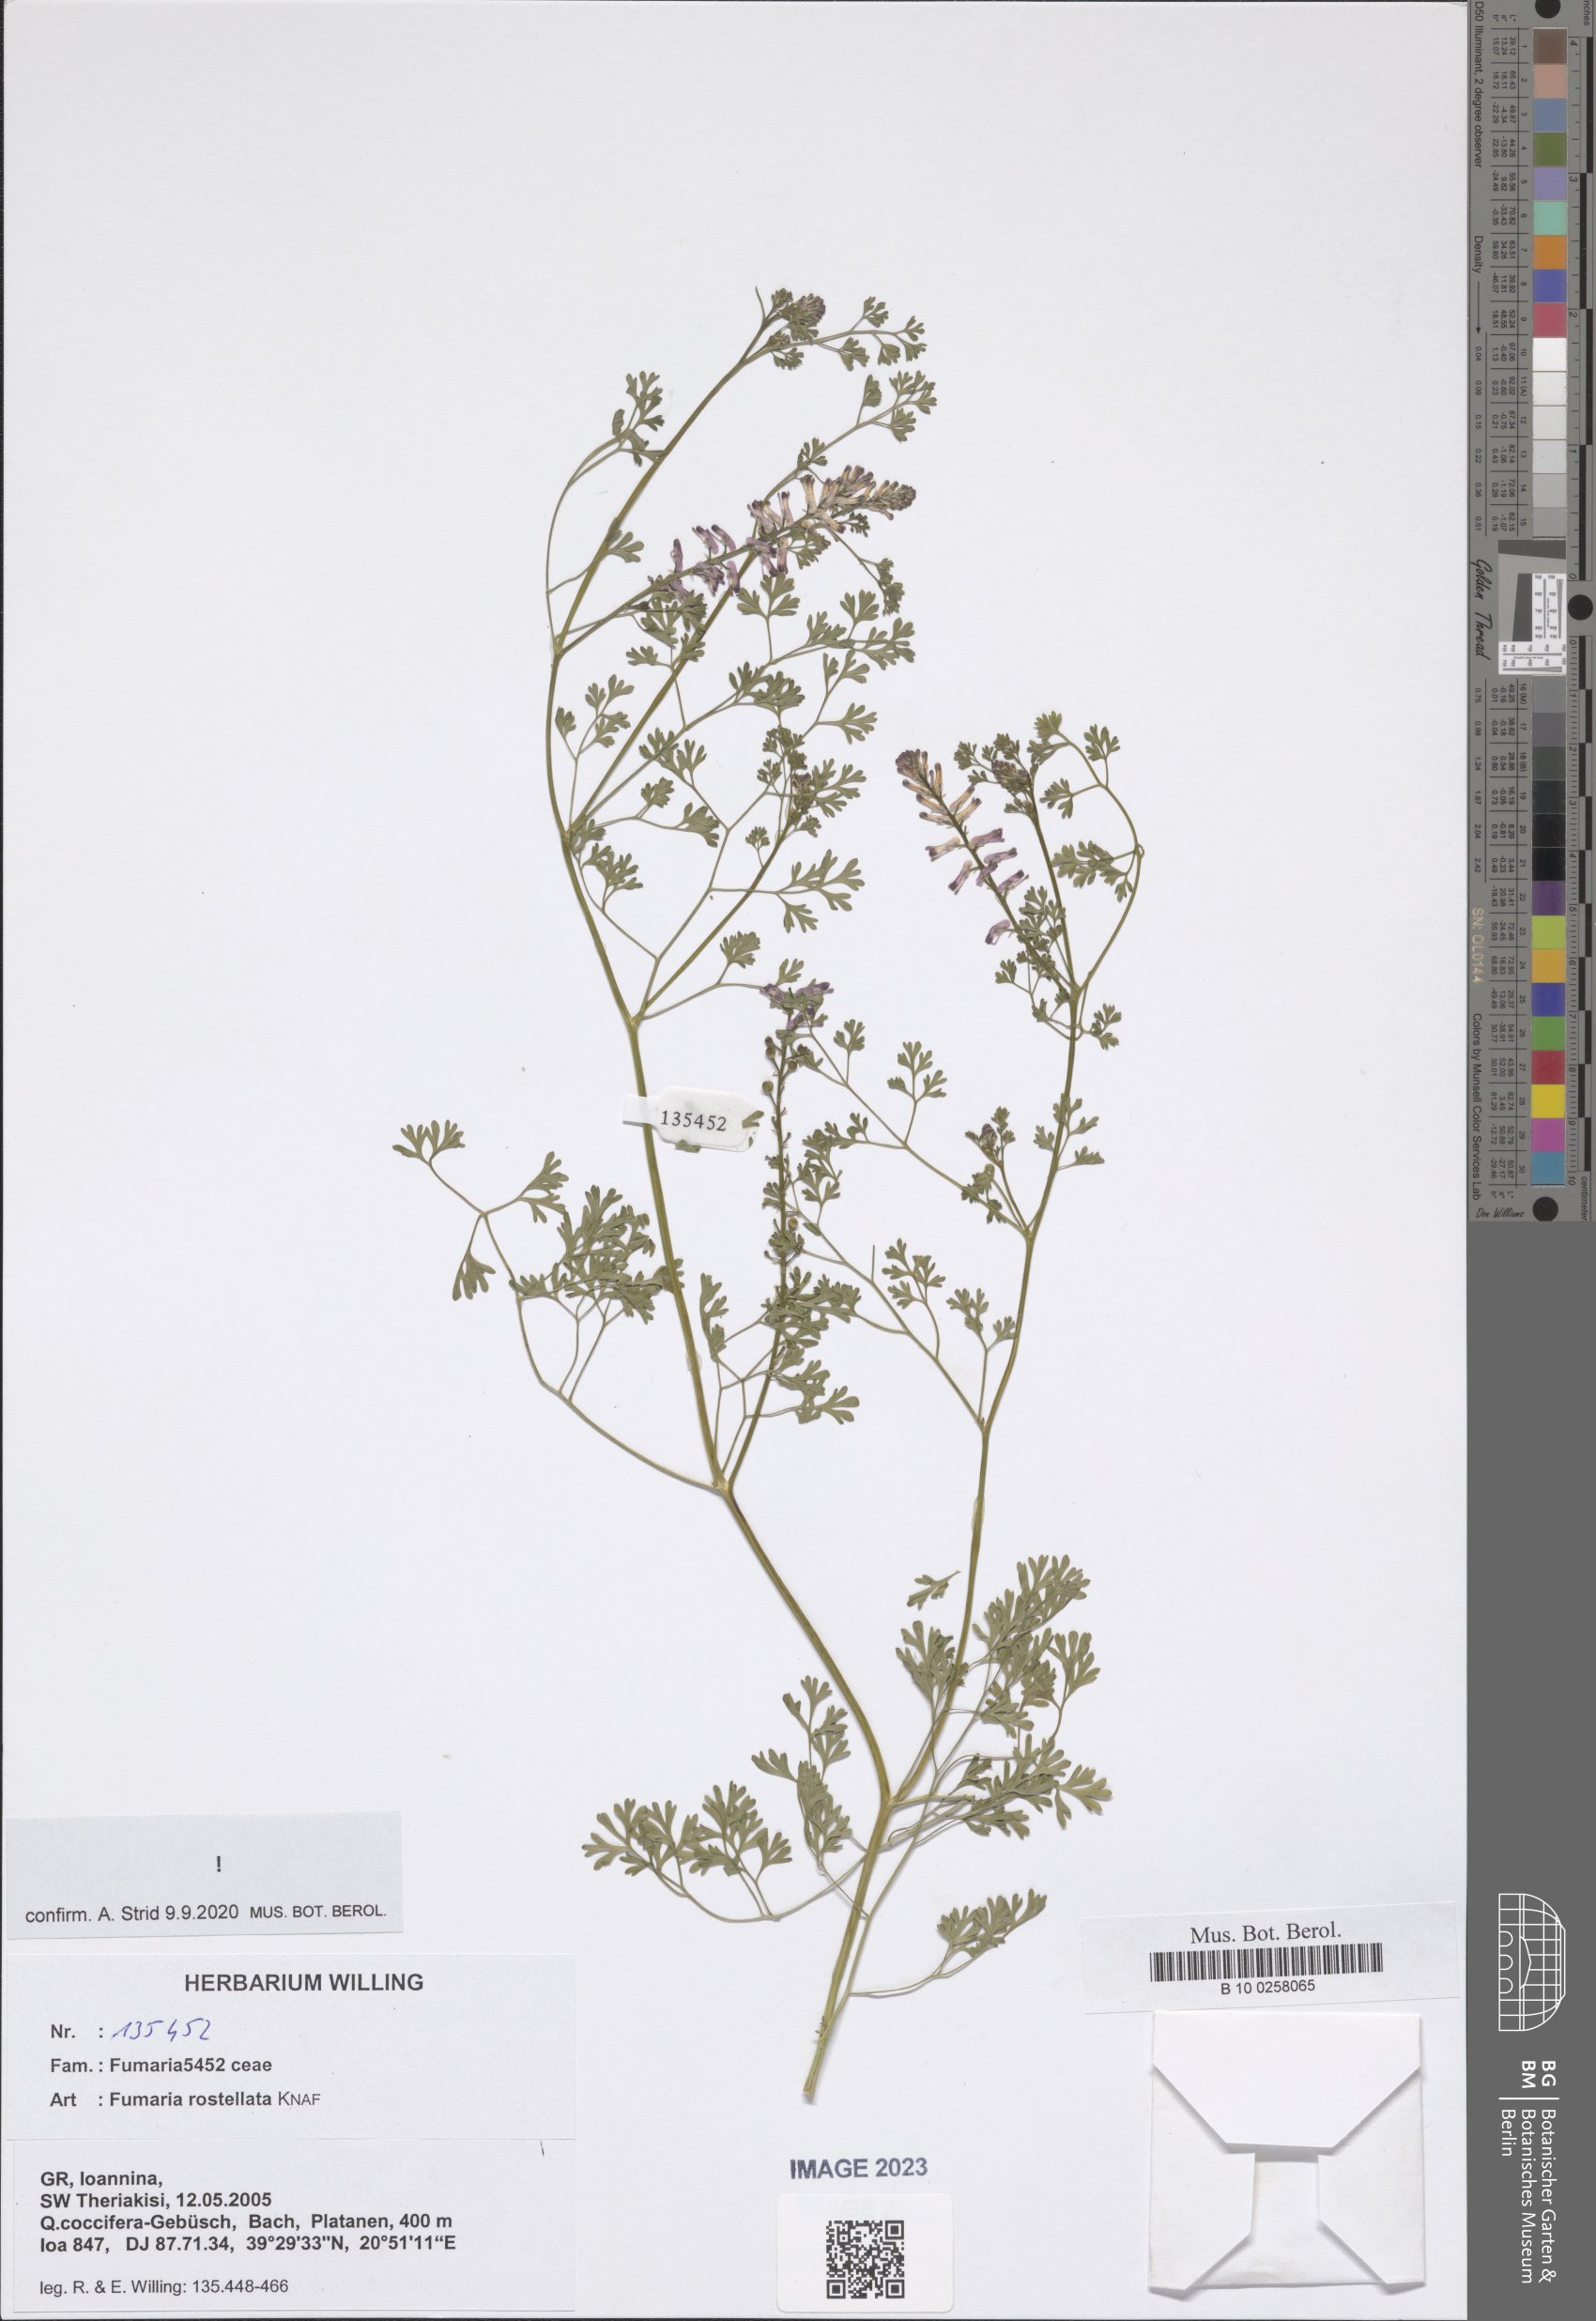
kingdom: Plantae
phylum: Tracheophyta
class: Magnoliopsida
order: Ranunculales
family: Papaveraceae
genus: Fumaria
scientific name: Fumaria rostellata
